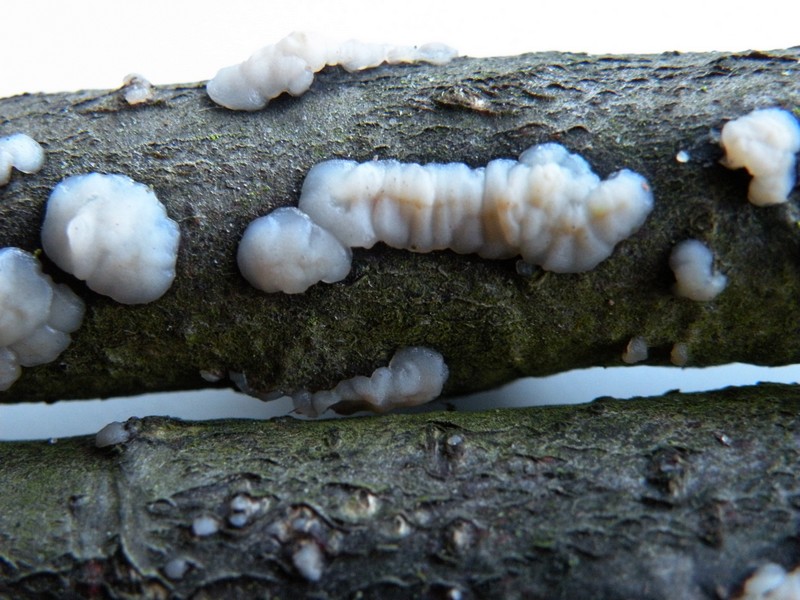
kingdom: Fungi
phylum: Basidiomycota
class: Agaricomycetes
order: Auriculariales
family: Auriculariaceae
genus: Exidia
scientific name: Exidia thuretiana
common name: hvidlig bævretop
